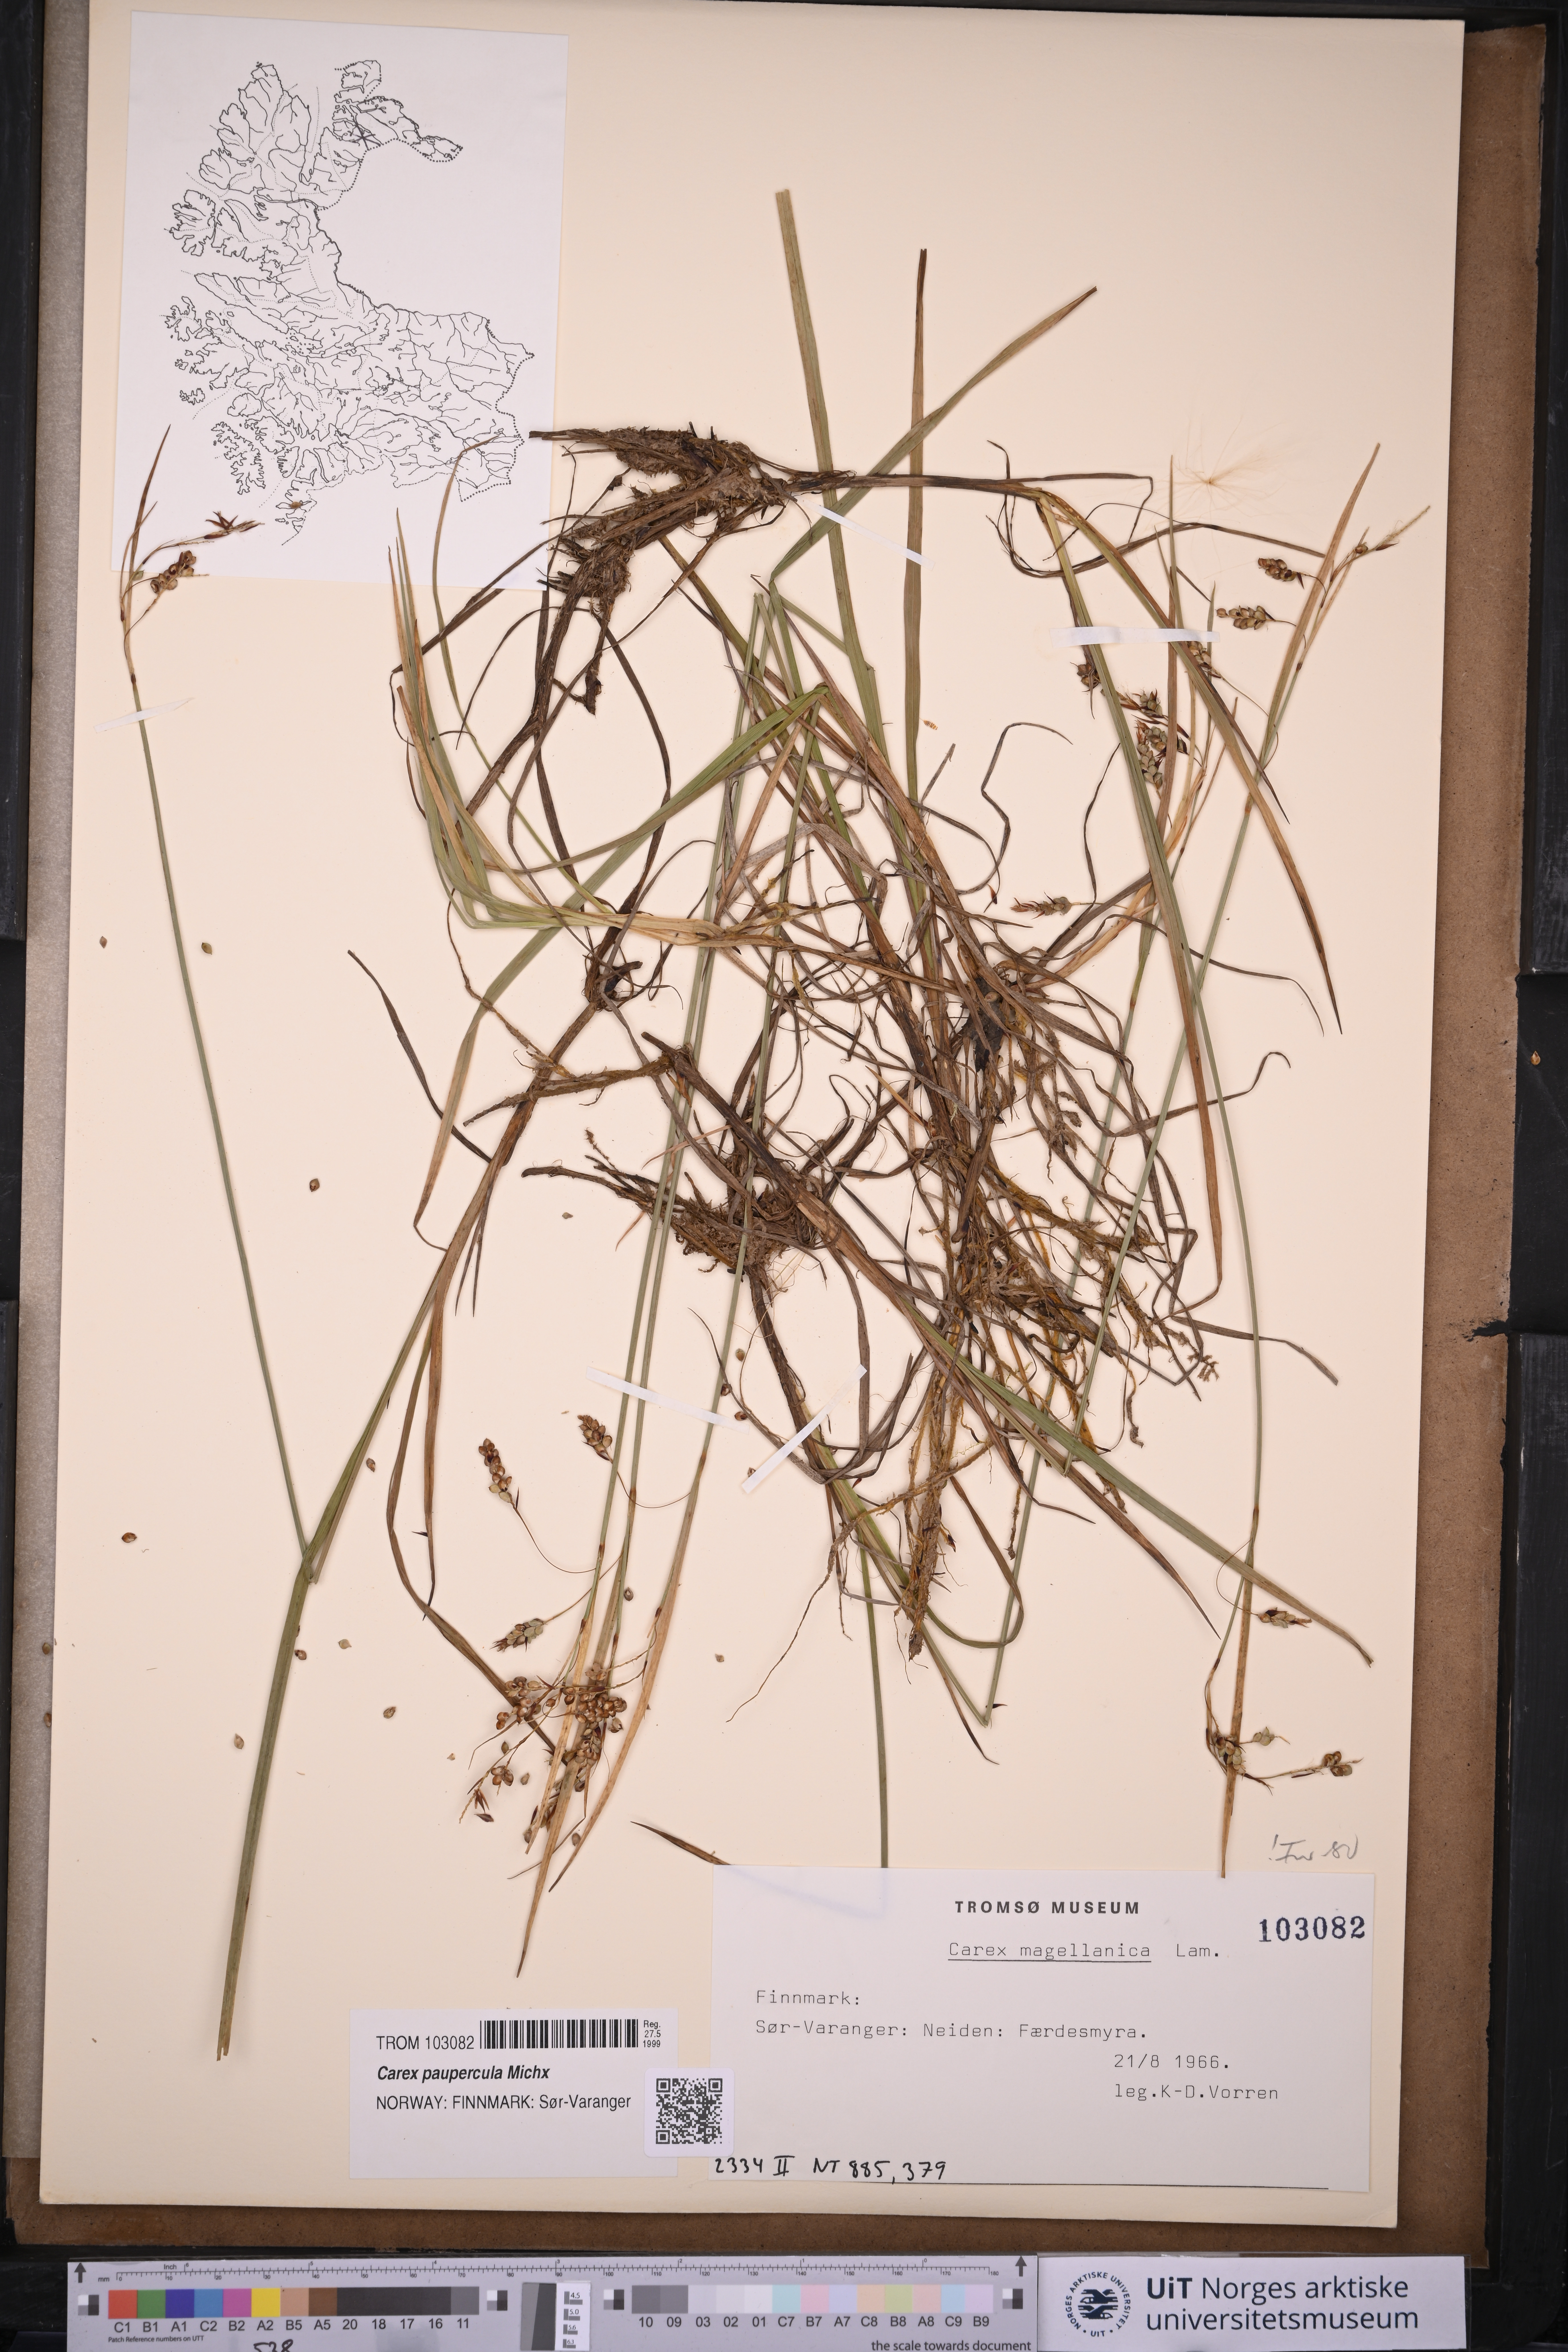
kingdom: Plantae
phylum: Tracheophyta
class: Liliopsida
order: Poales
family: Cyperaceae
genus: Carex
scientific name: Carex magellanica
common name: Bog sedge
